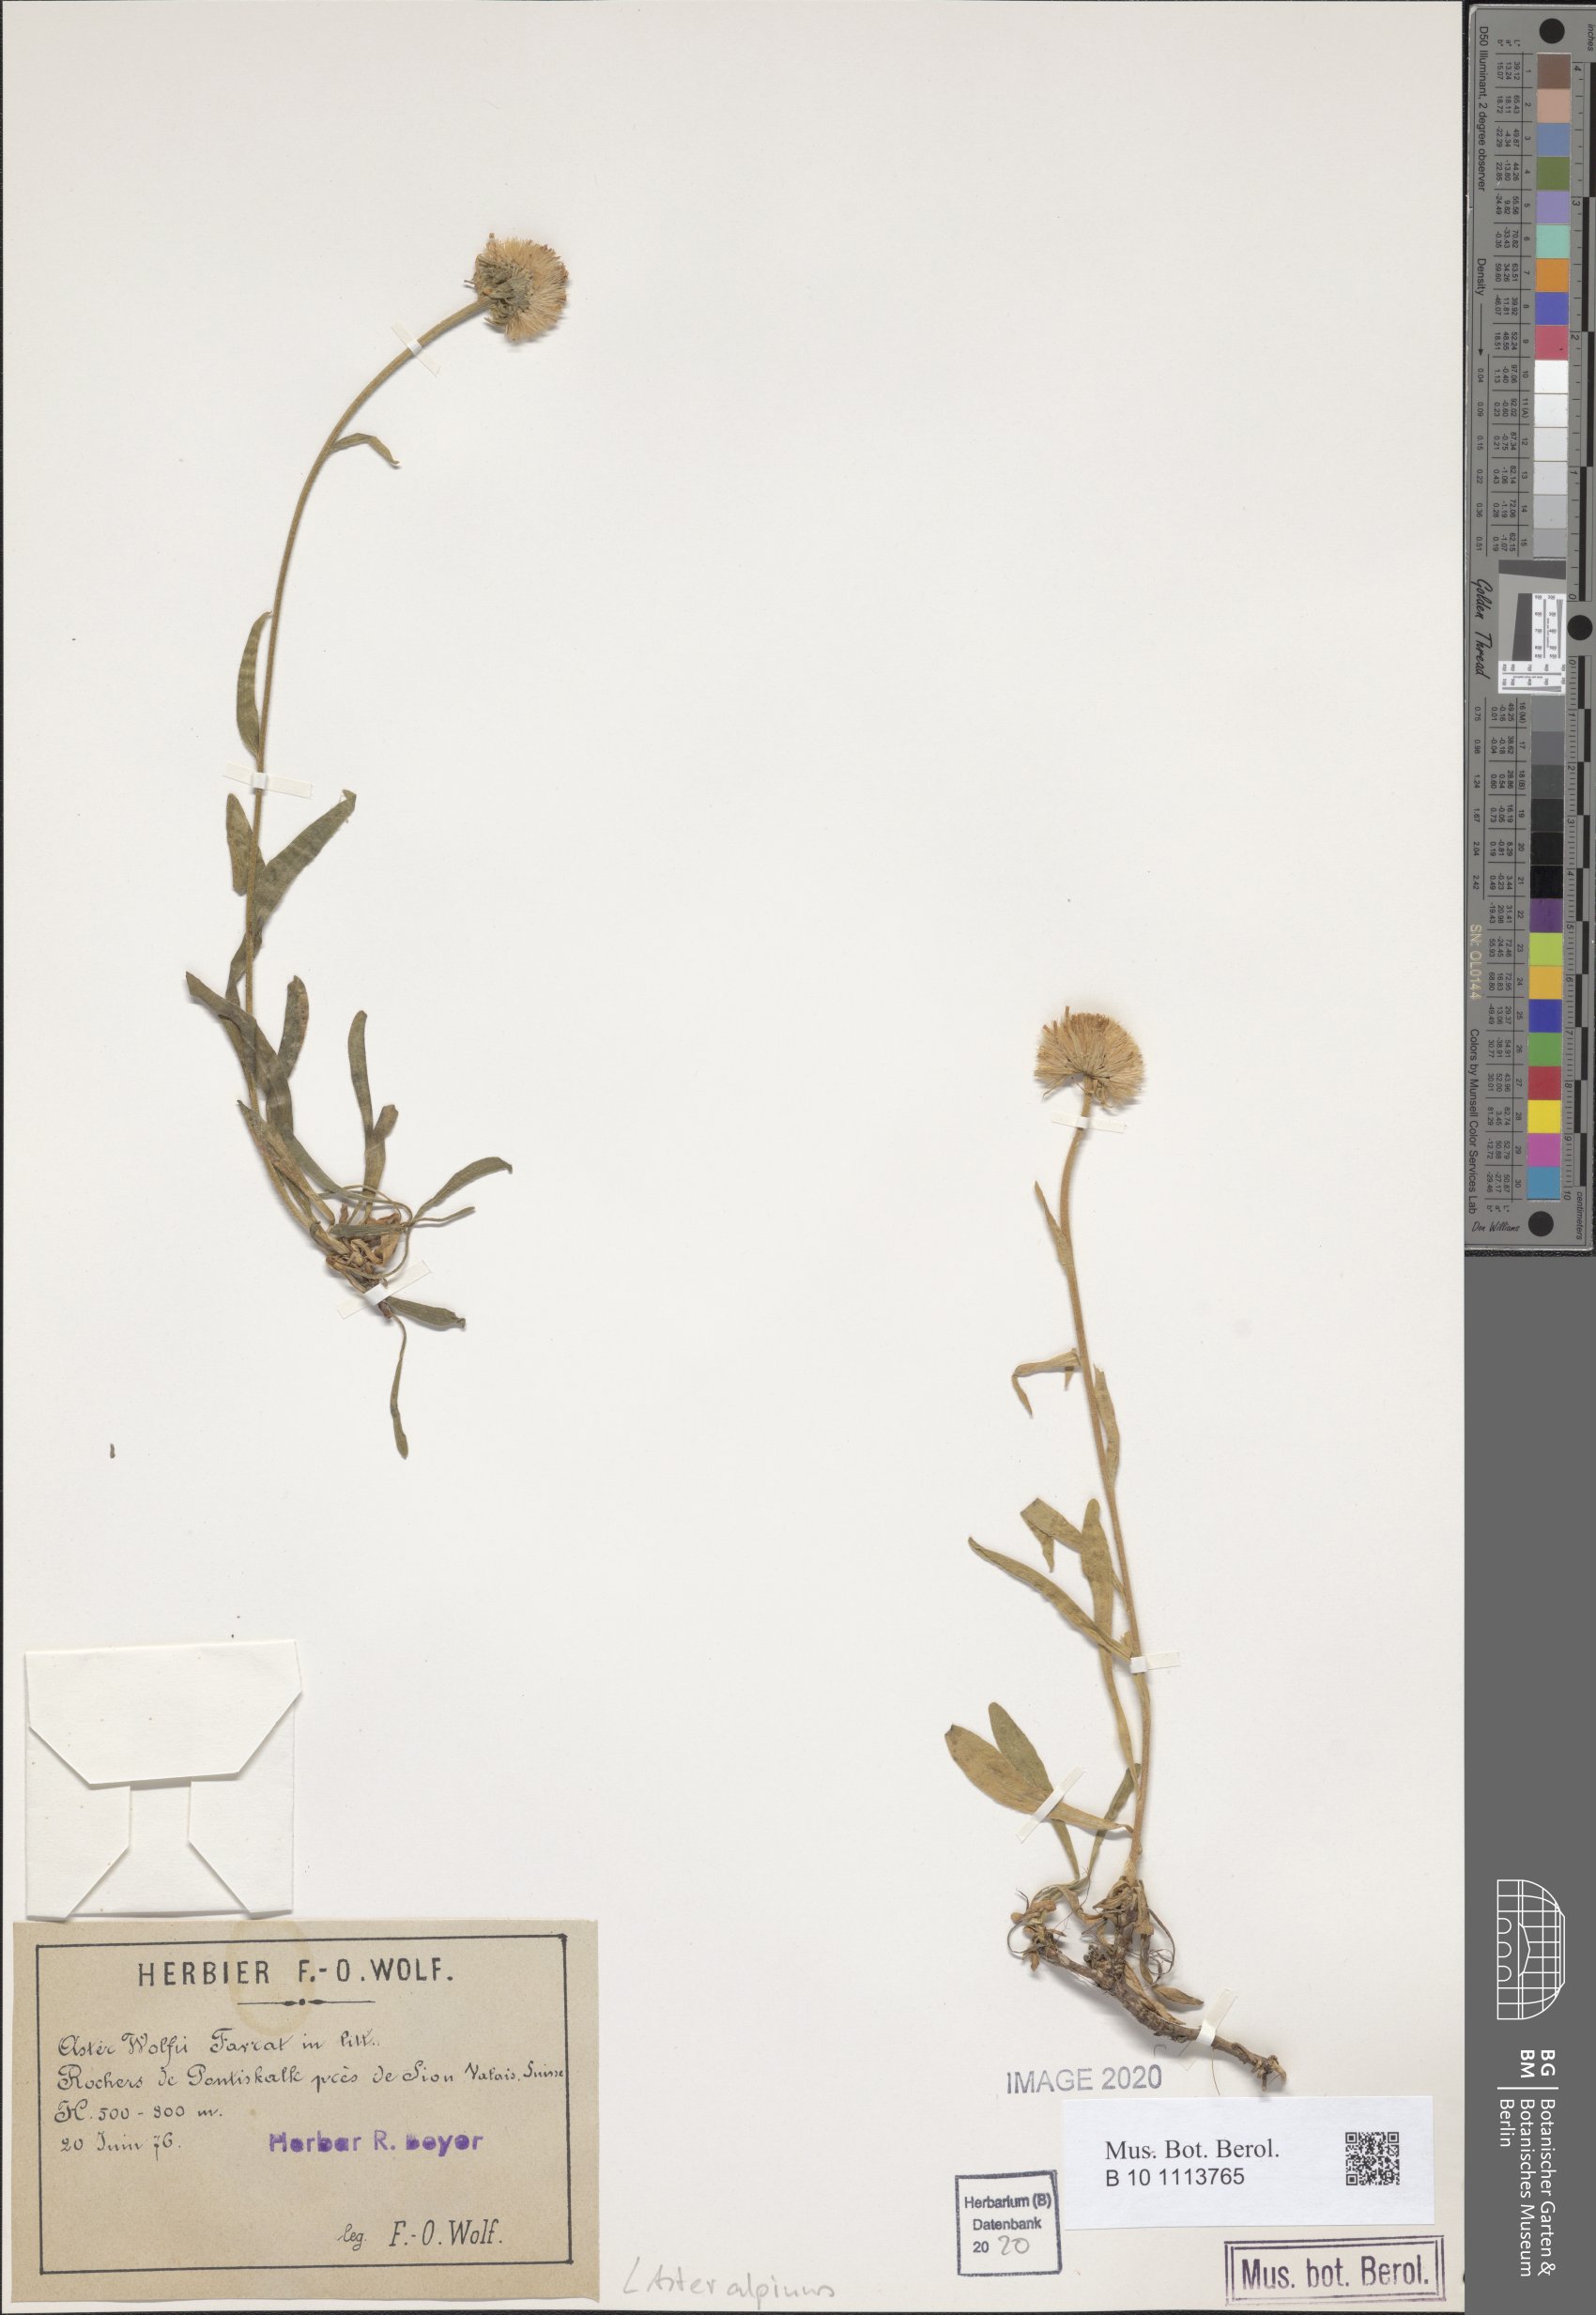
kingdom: Plantae
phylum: Tracheophyta
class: Magnoliopsida
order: Asterales
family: Asteraceae
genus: Aster
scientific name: Aster alpinus
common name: Alpine aster
